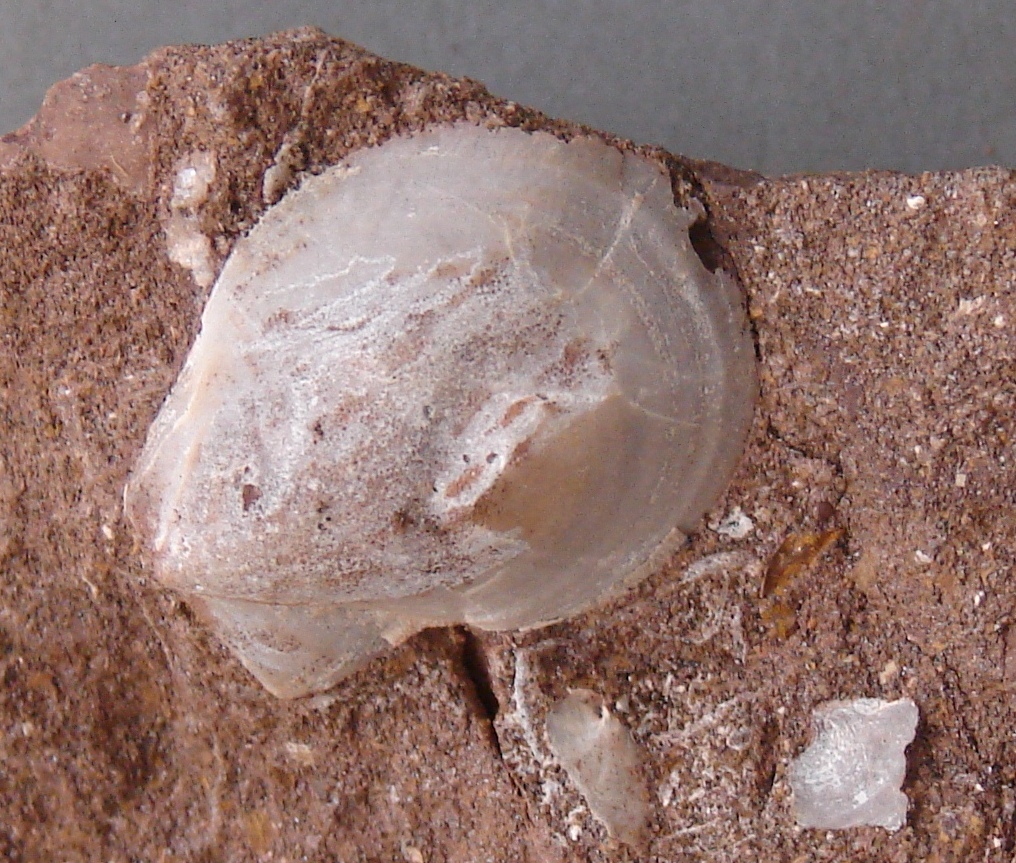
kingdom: Animalia
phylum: Mollusca
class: Bivalvia
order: Pectinida
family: Pectinidae
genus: Camptonectes
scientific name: Camptonectes auritus
